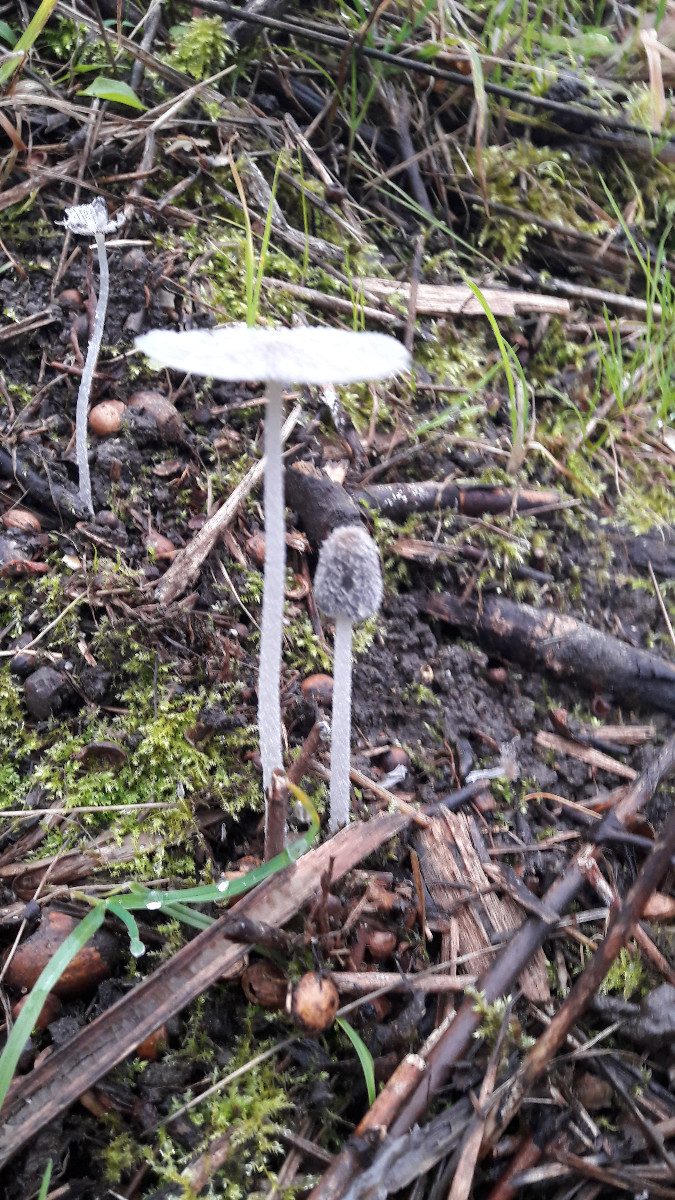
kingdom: Fungi
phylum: Basidiomycota
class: Agaricomycetes
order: Agaricales
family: Psathyrellaceae
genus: Coprinopsis
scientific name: Coprinopsis lagopus
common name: dunstokket blækhat
